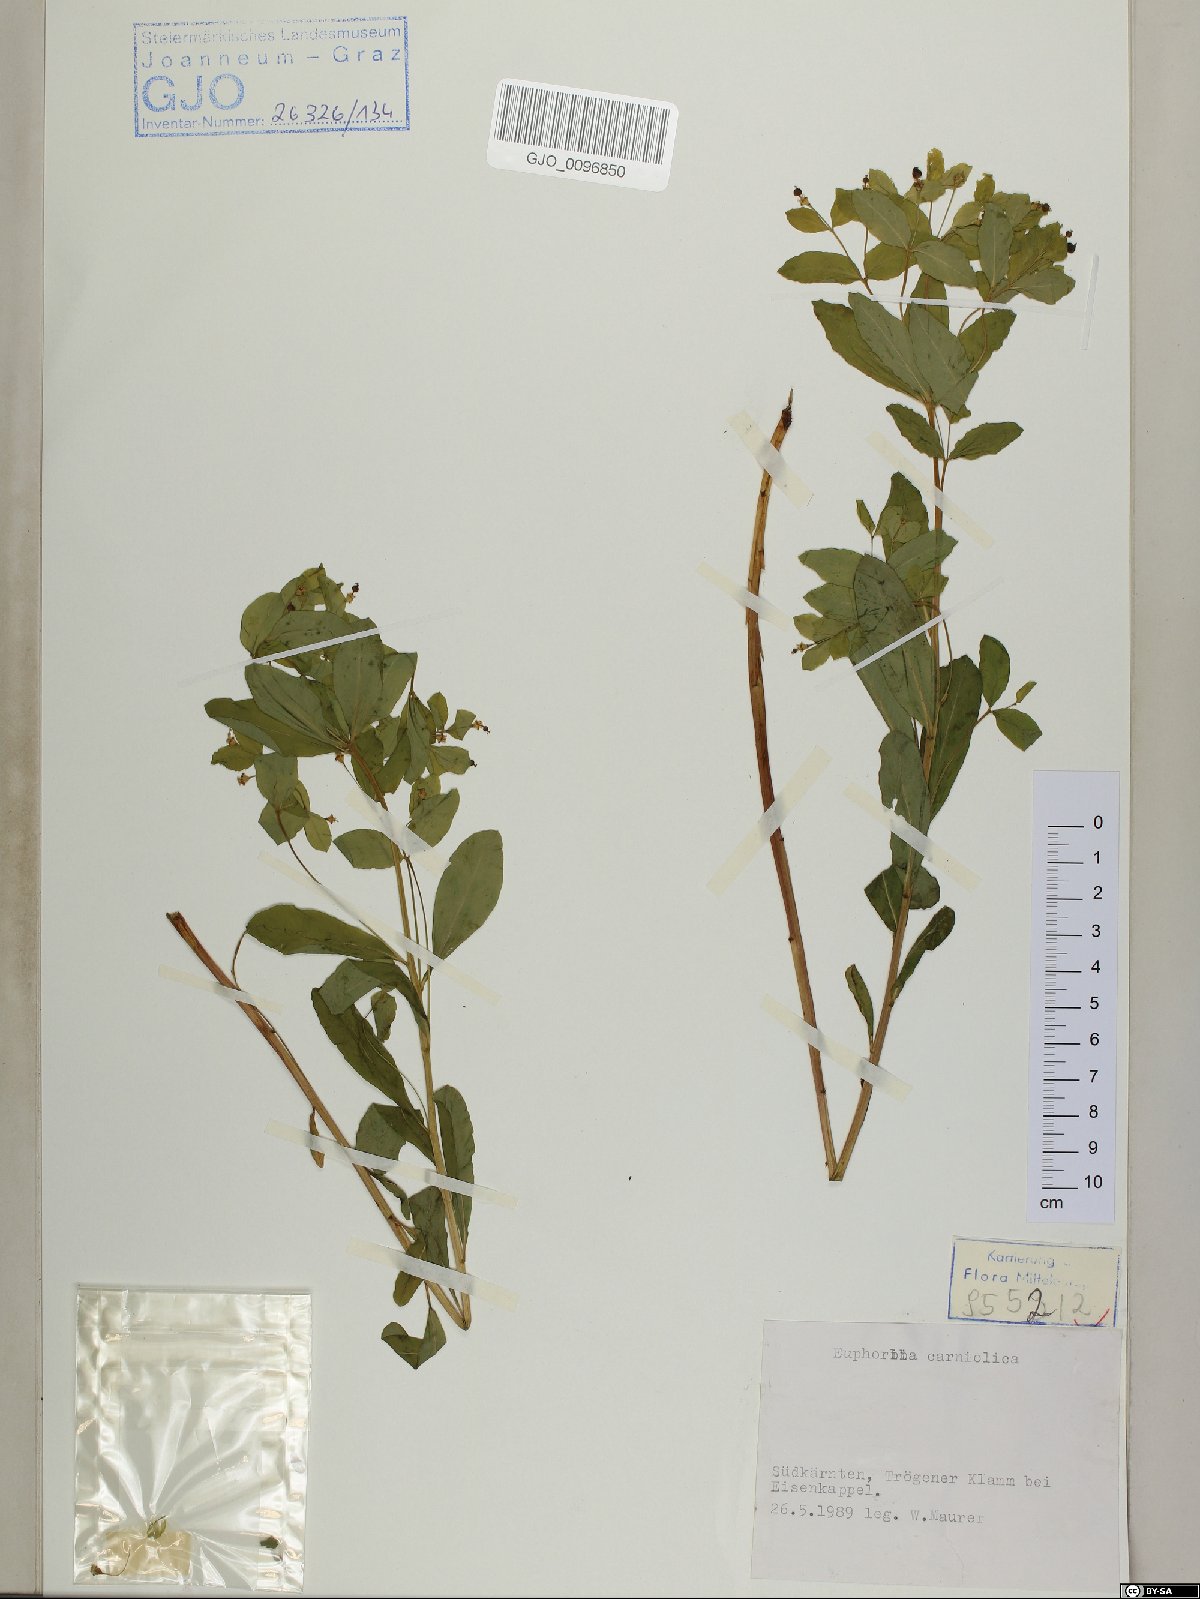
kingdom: Plantae
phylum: Tracheophyta
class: Magnoliopsida
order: Malpighiales
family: Euphorbiaceae
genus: Euphorbia
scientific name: Euphorbia carniolica
